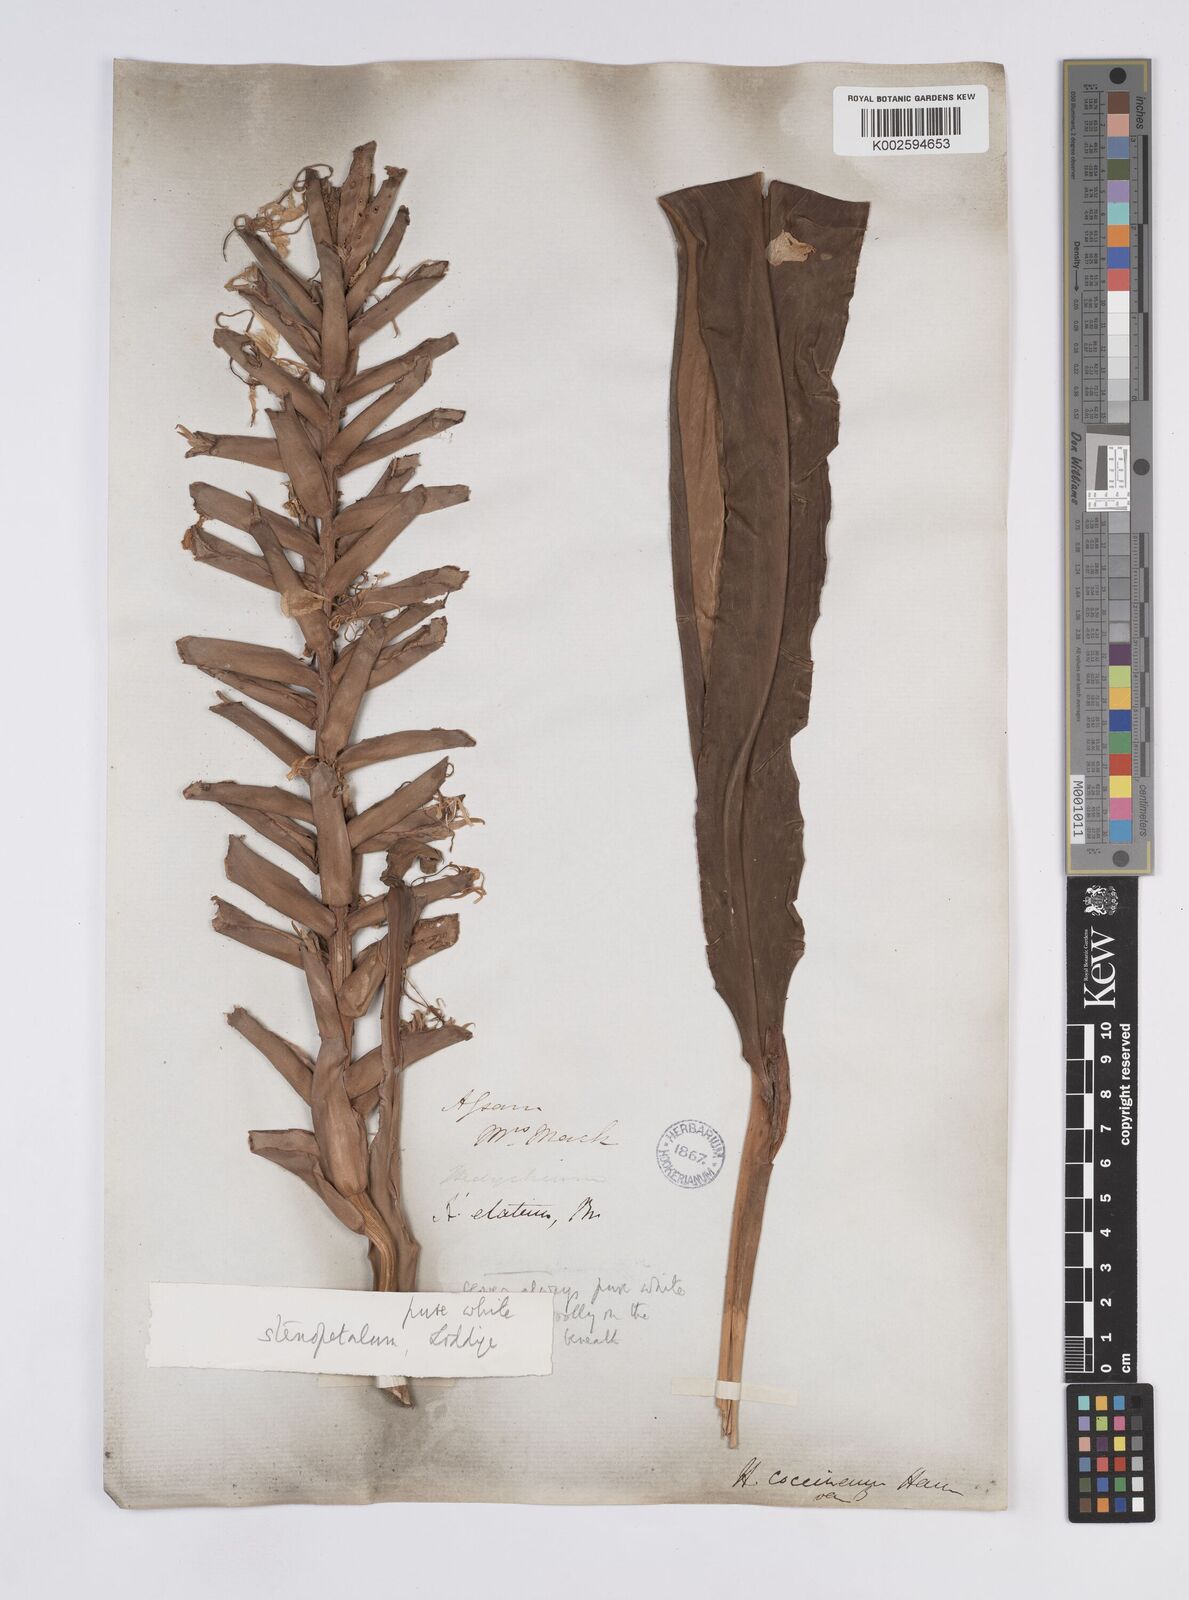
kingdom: Plantae
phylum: Tracheophyta
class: Liliopsida
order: Zingiberales
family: Zingiberaceae
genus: Hedychium
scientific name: Hedychium stenopetalum
